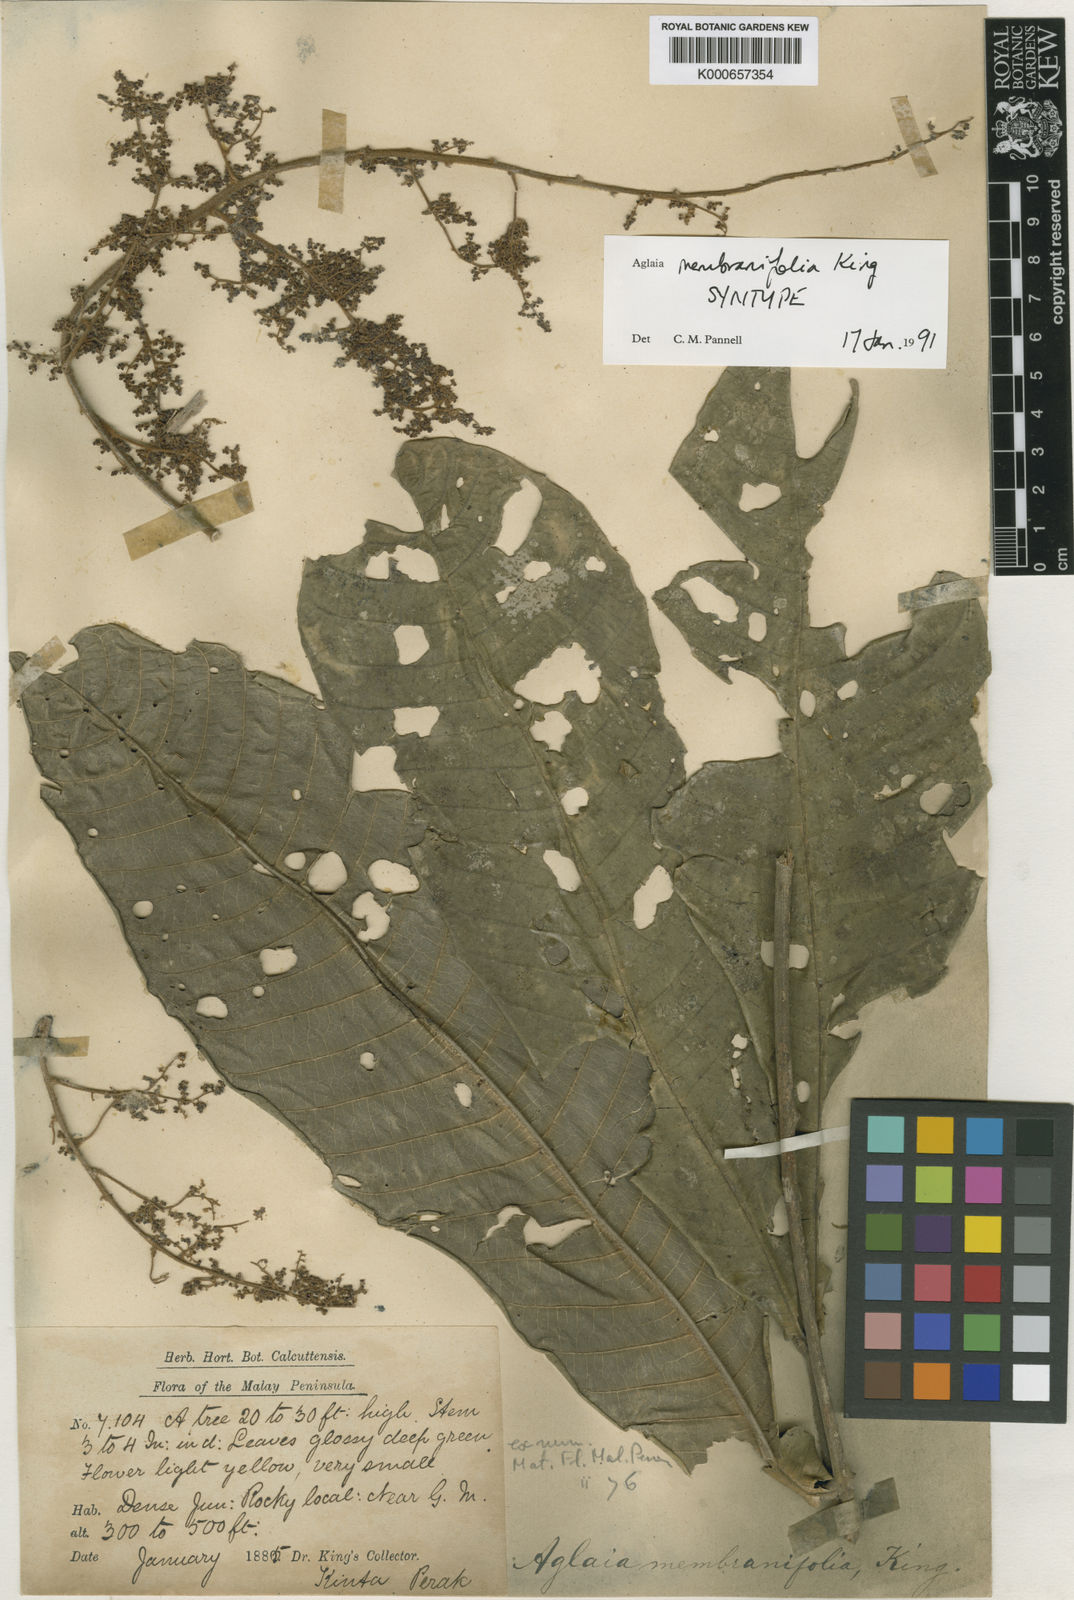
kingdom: Plantae
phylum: Tracheophyta
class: Magnoliopsida
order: Sapindales
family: Meliaceae
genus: Aglaia
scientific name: Aglaia membranifolia
